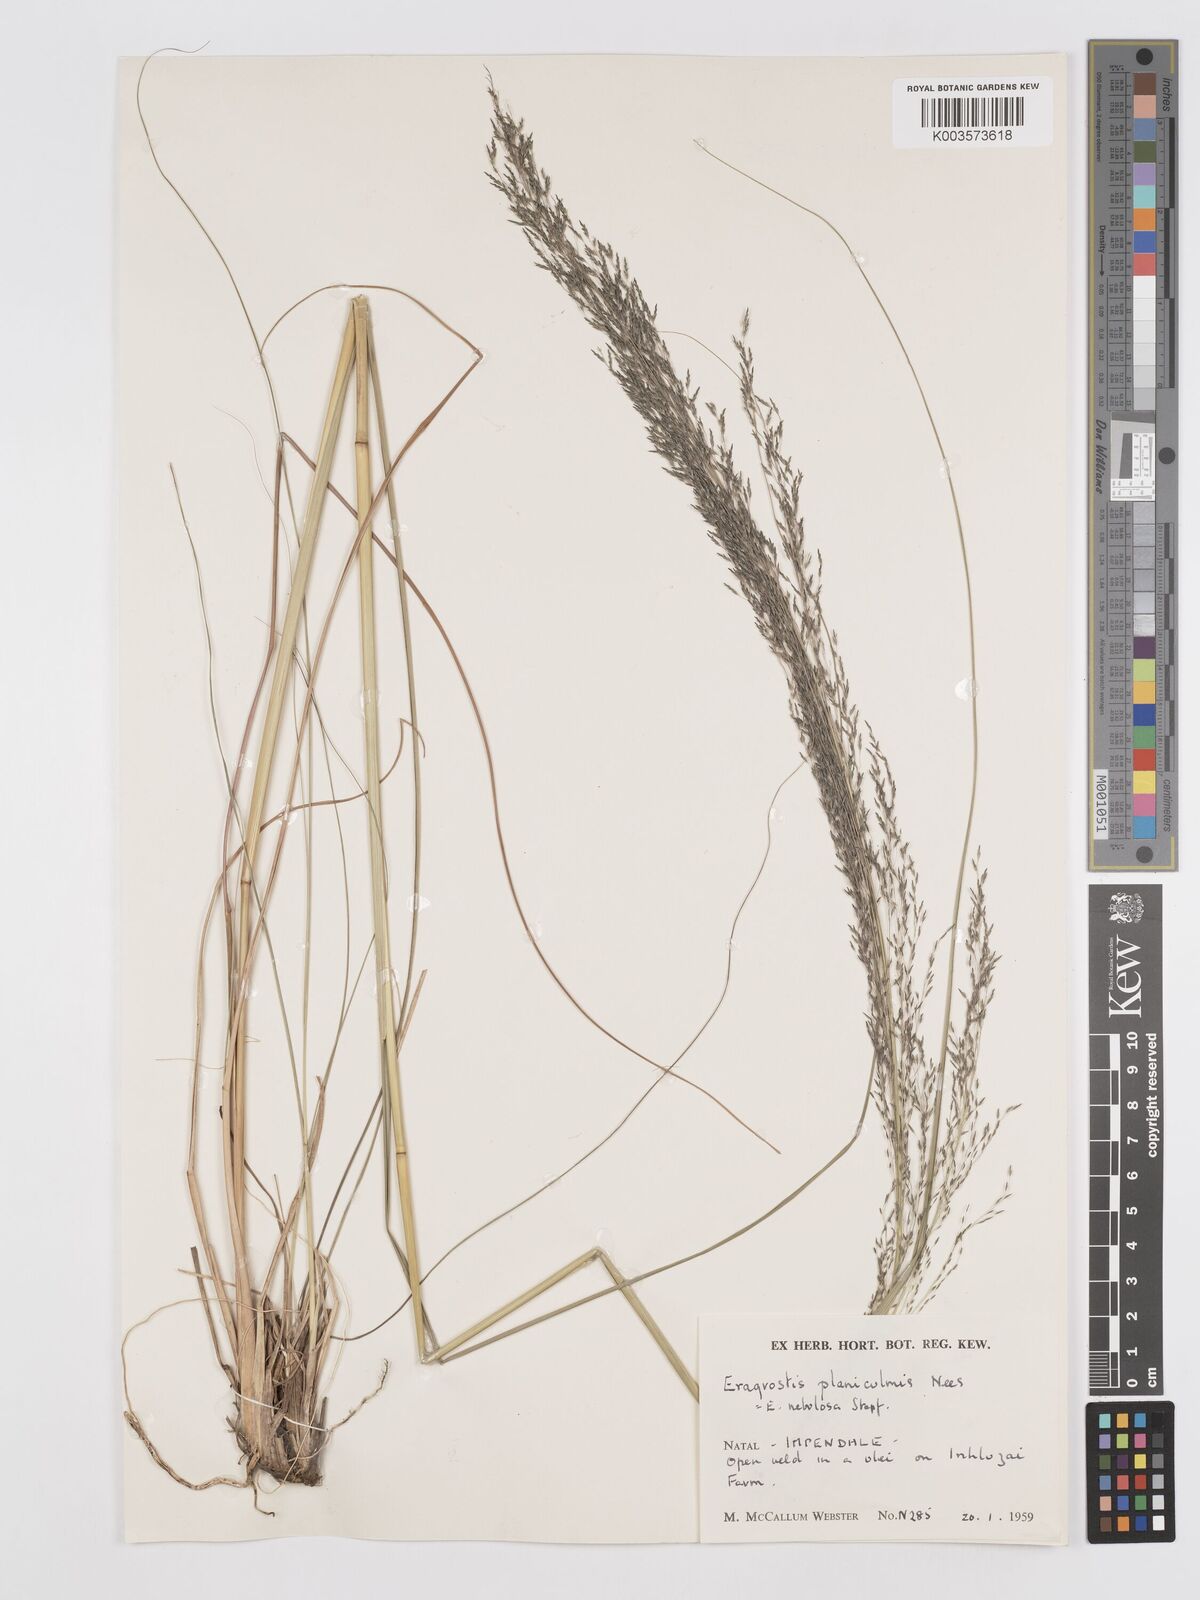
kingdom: Plantae
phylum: Tracheophyta
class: Liliopsida
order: Poales
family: Poaceae
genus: Eragrostis
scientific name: Eragrostis planiculmis
